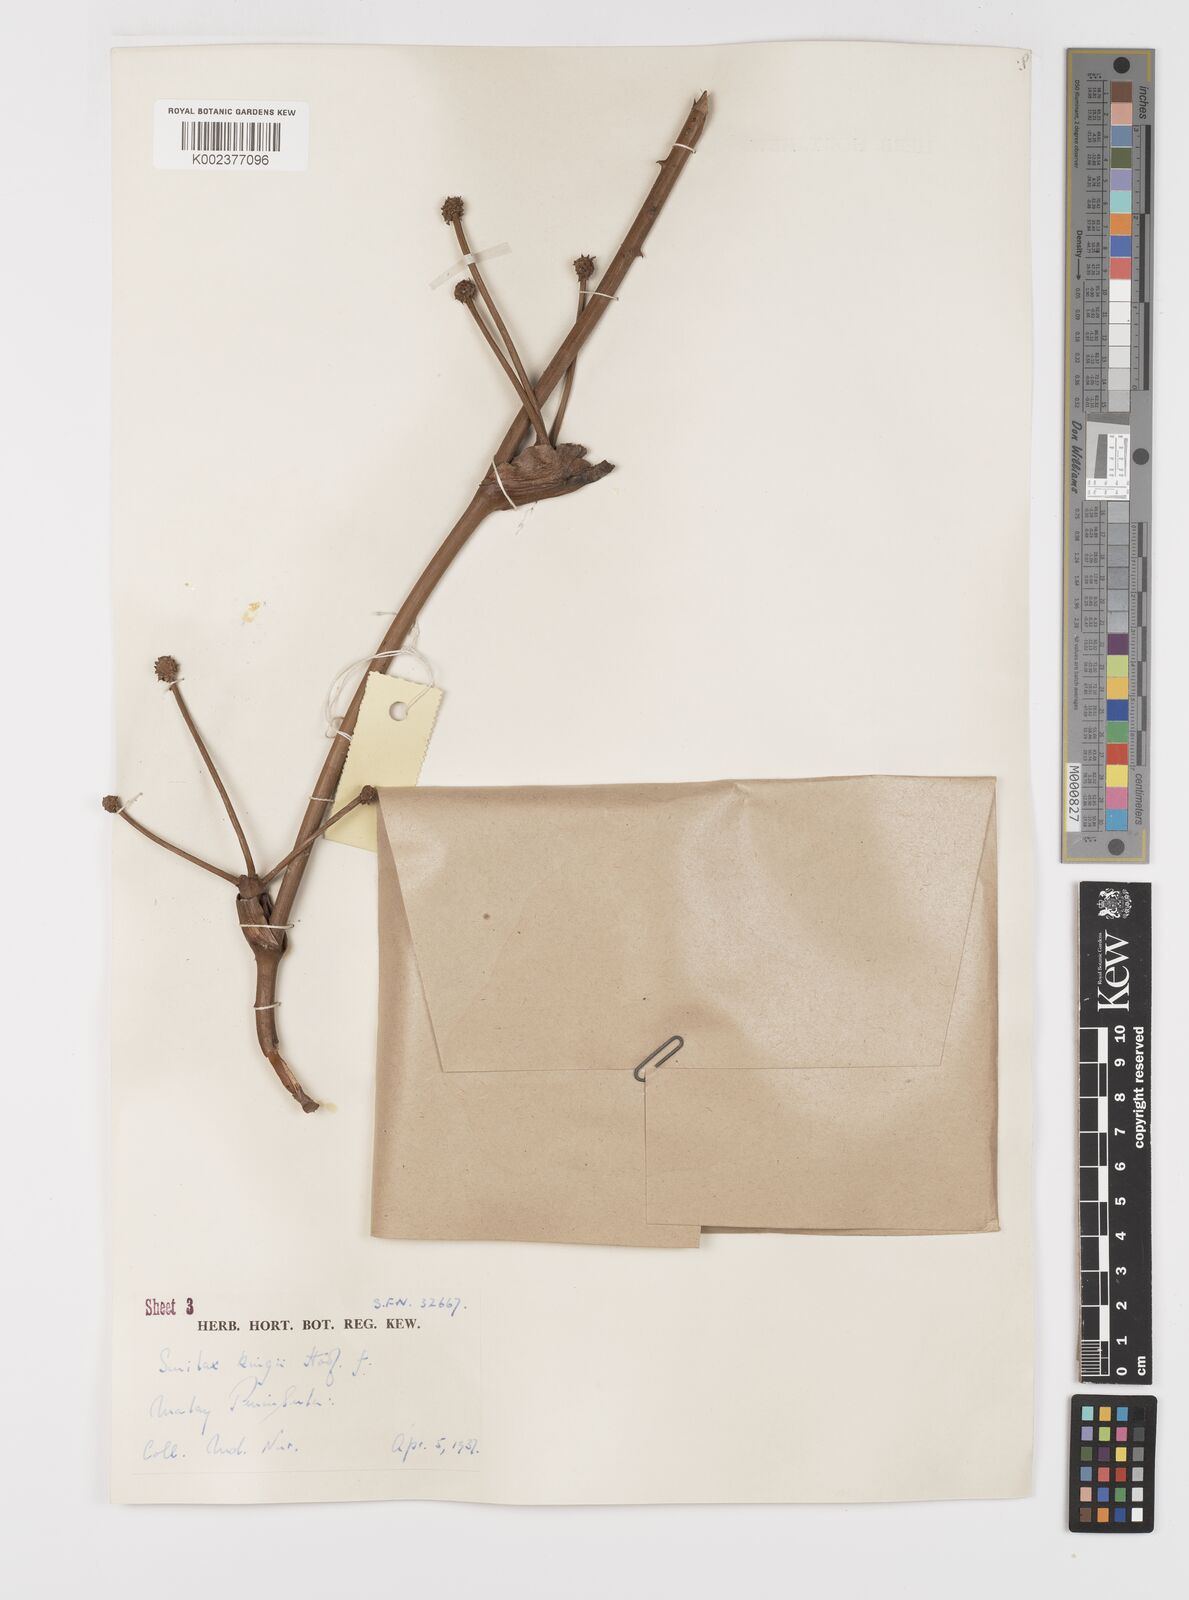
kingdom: Plantae
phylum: Tracheophyta
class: Liliopsida
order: Liliales
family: Smilacaceae
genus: Smilax
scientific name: Smilax kingii
